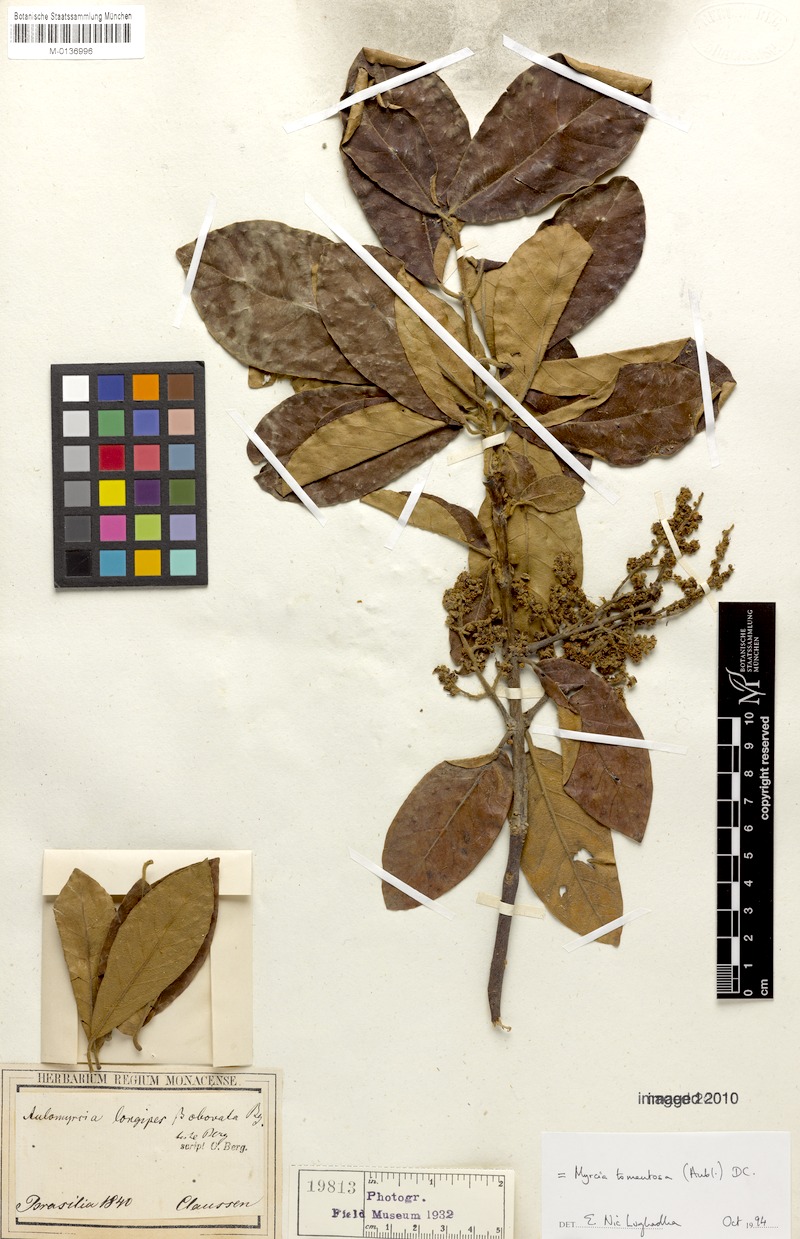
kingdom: Plantae
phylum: Tracheophyta
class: Magnoliopsida
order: Myrtales
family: Myrtaceae
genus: Myrcia
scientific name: Myrcia tomentosa
